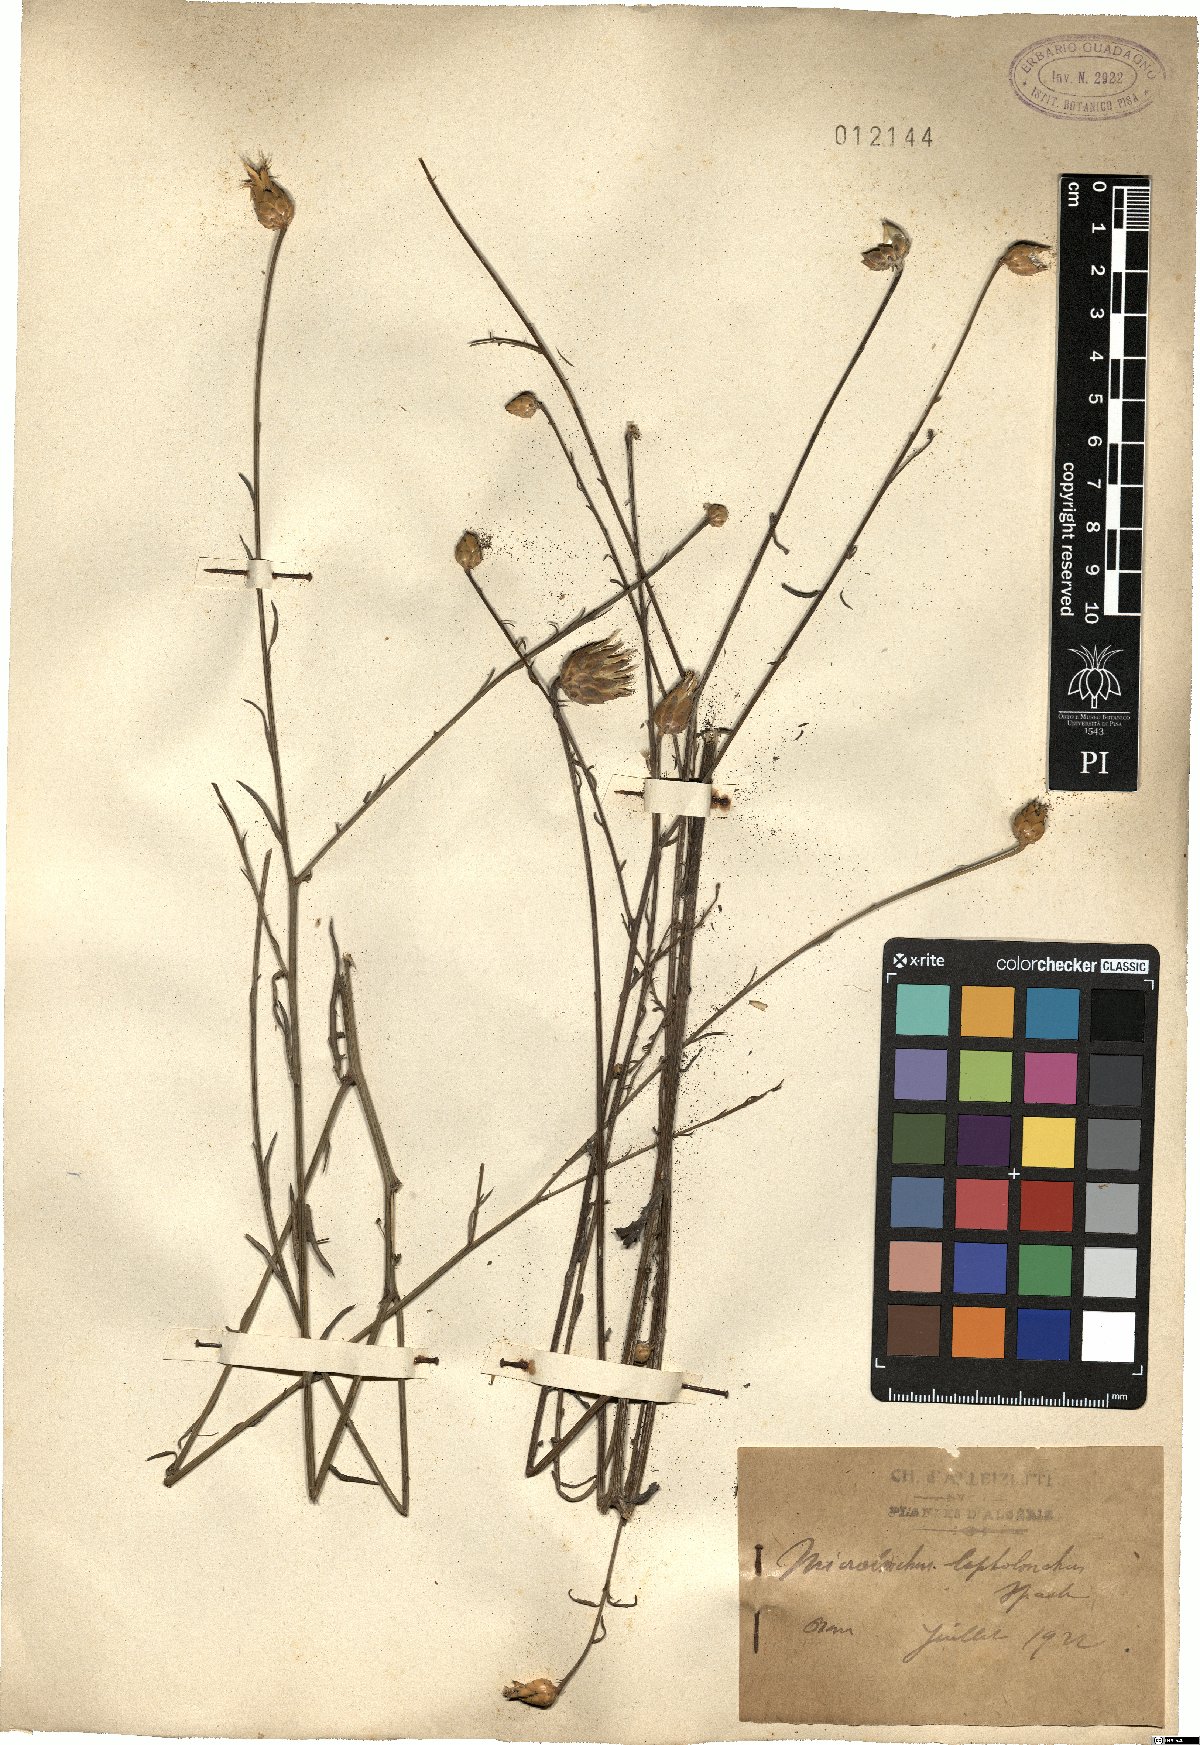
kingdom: Plantae
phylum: Tracheophyta
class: Magnoliopsida
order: Asterales
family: Asteraceae
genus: Mantisalca
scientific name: Mantisalca salmantica
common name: Dagger flower
